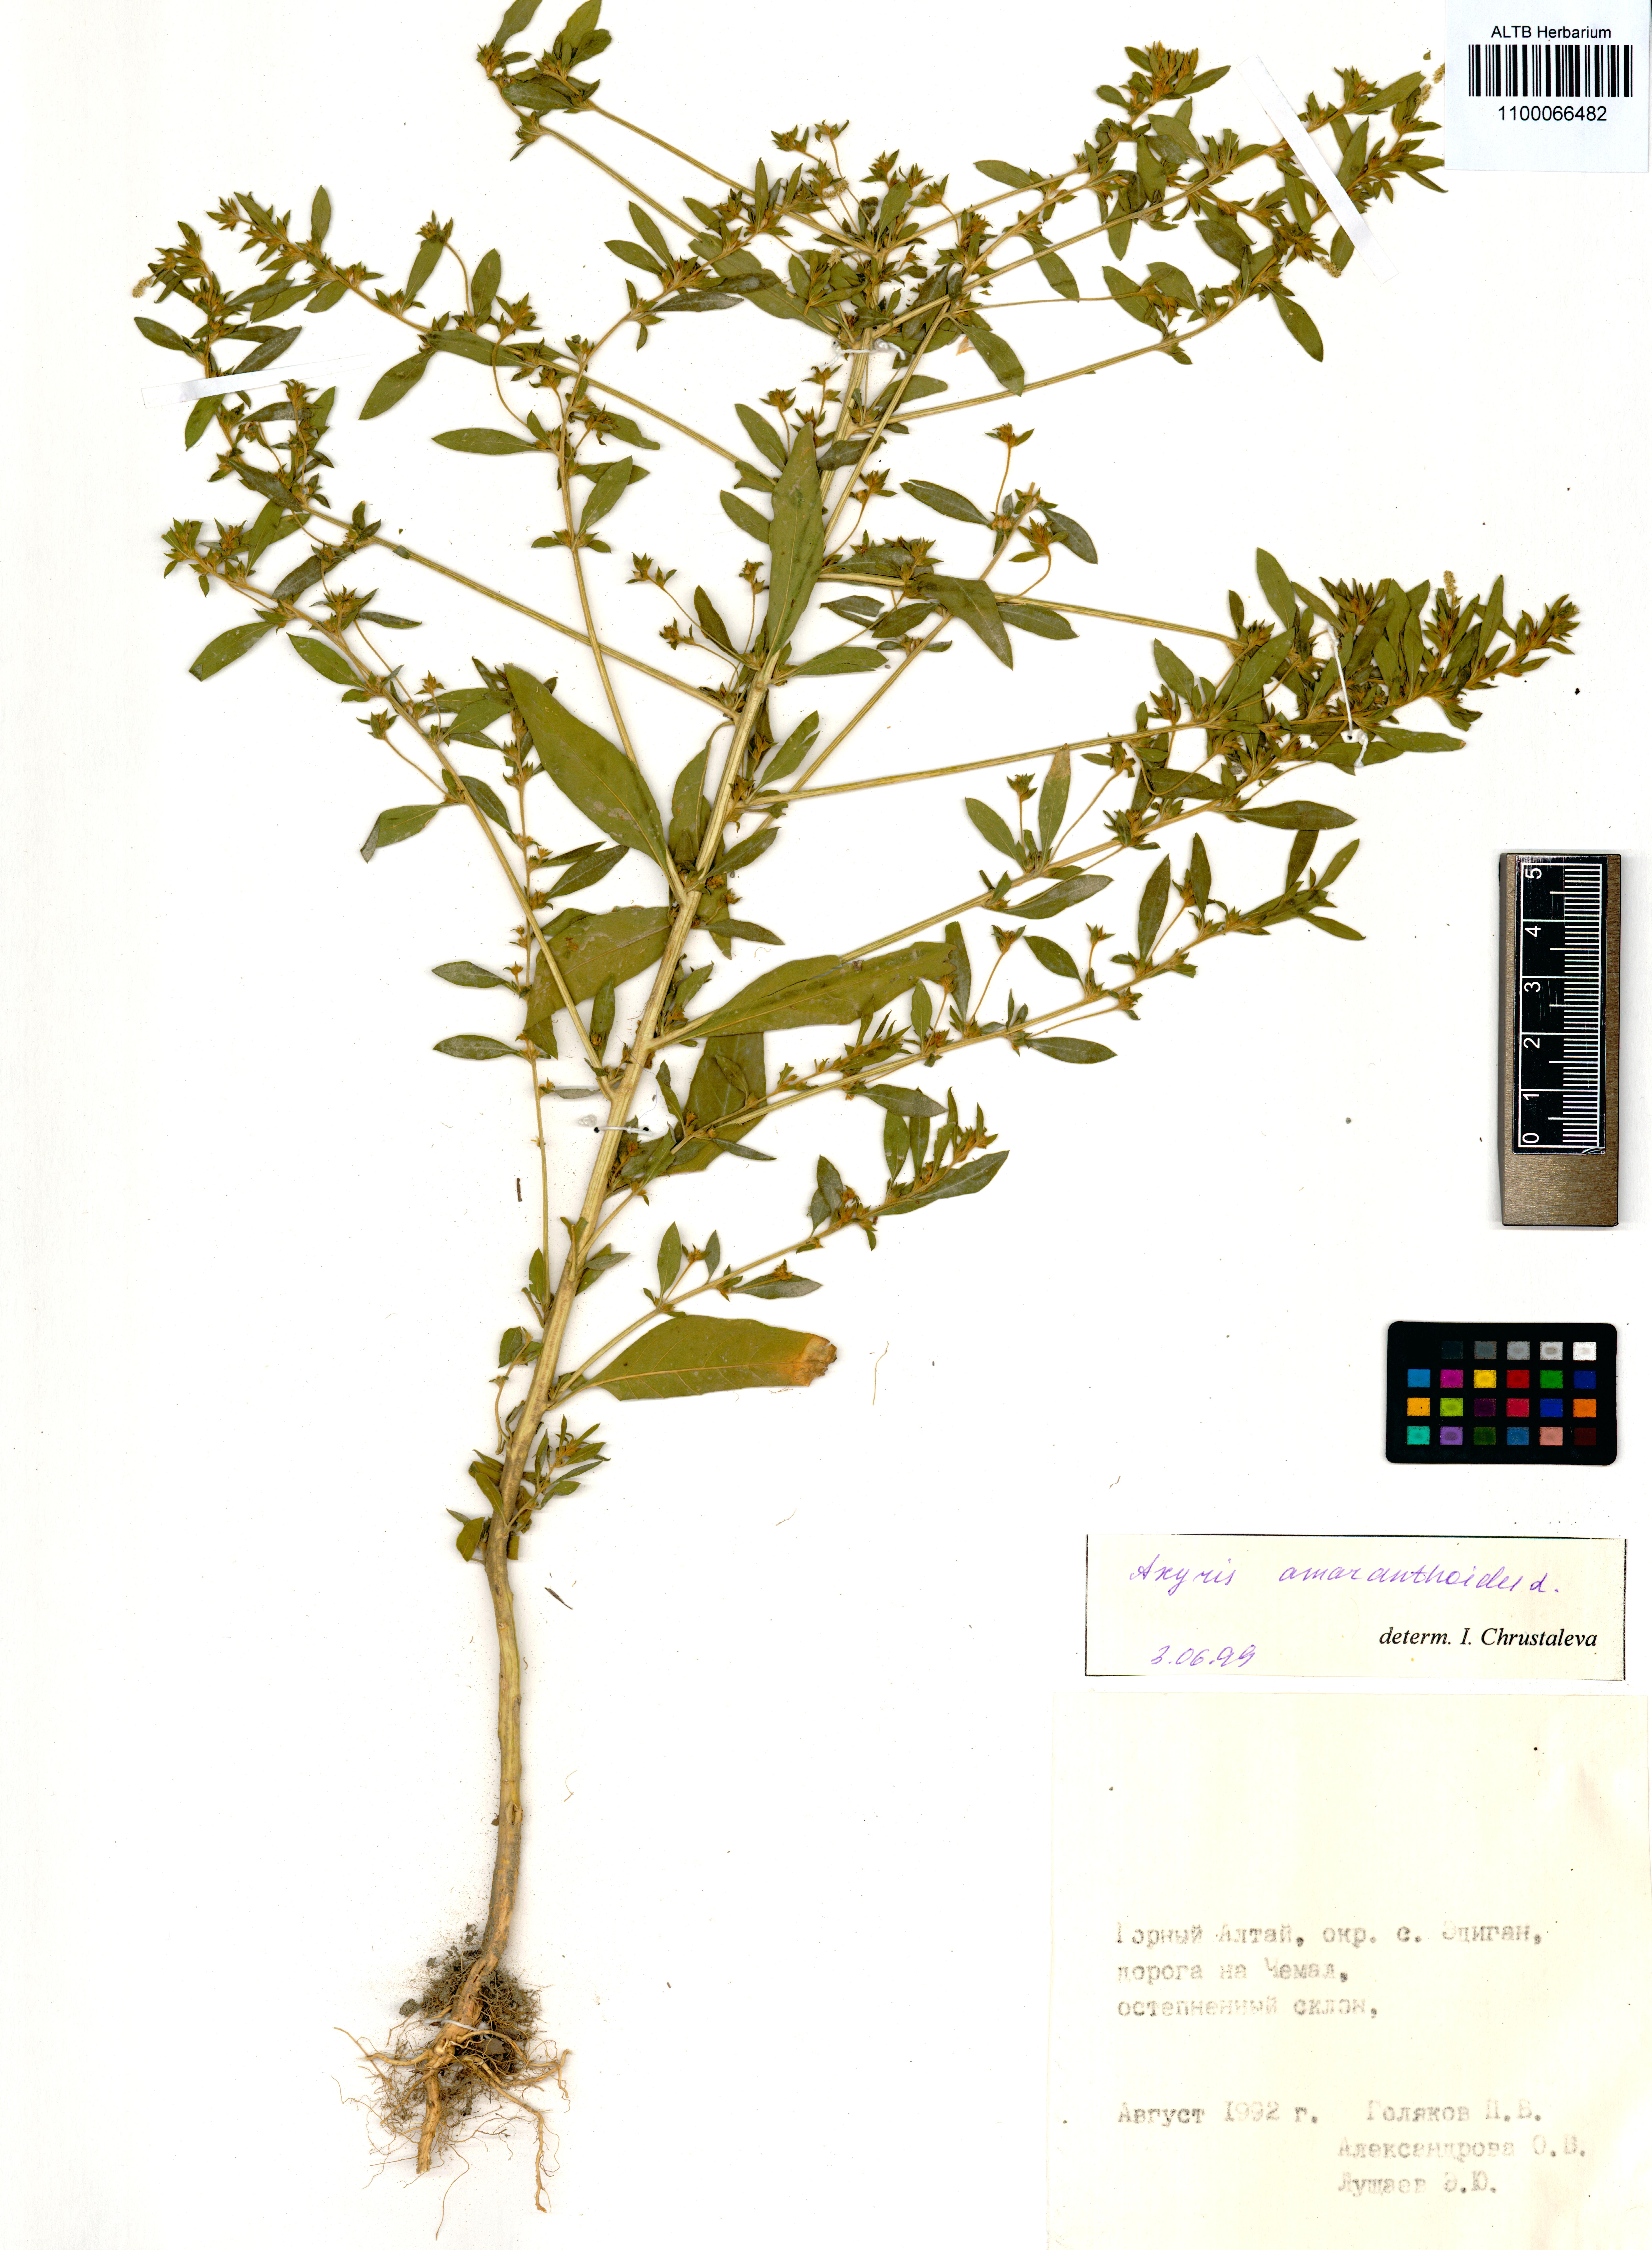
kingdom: Plantae
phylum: Tracheophyta
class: Magnoliopsida
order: Caryophyllales
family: Amaranthaceae
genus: Axyris
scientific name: Axyris amaranthoides
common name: Russian pigweed
